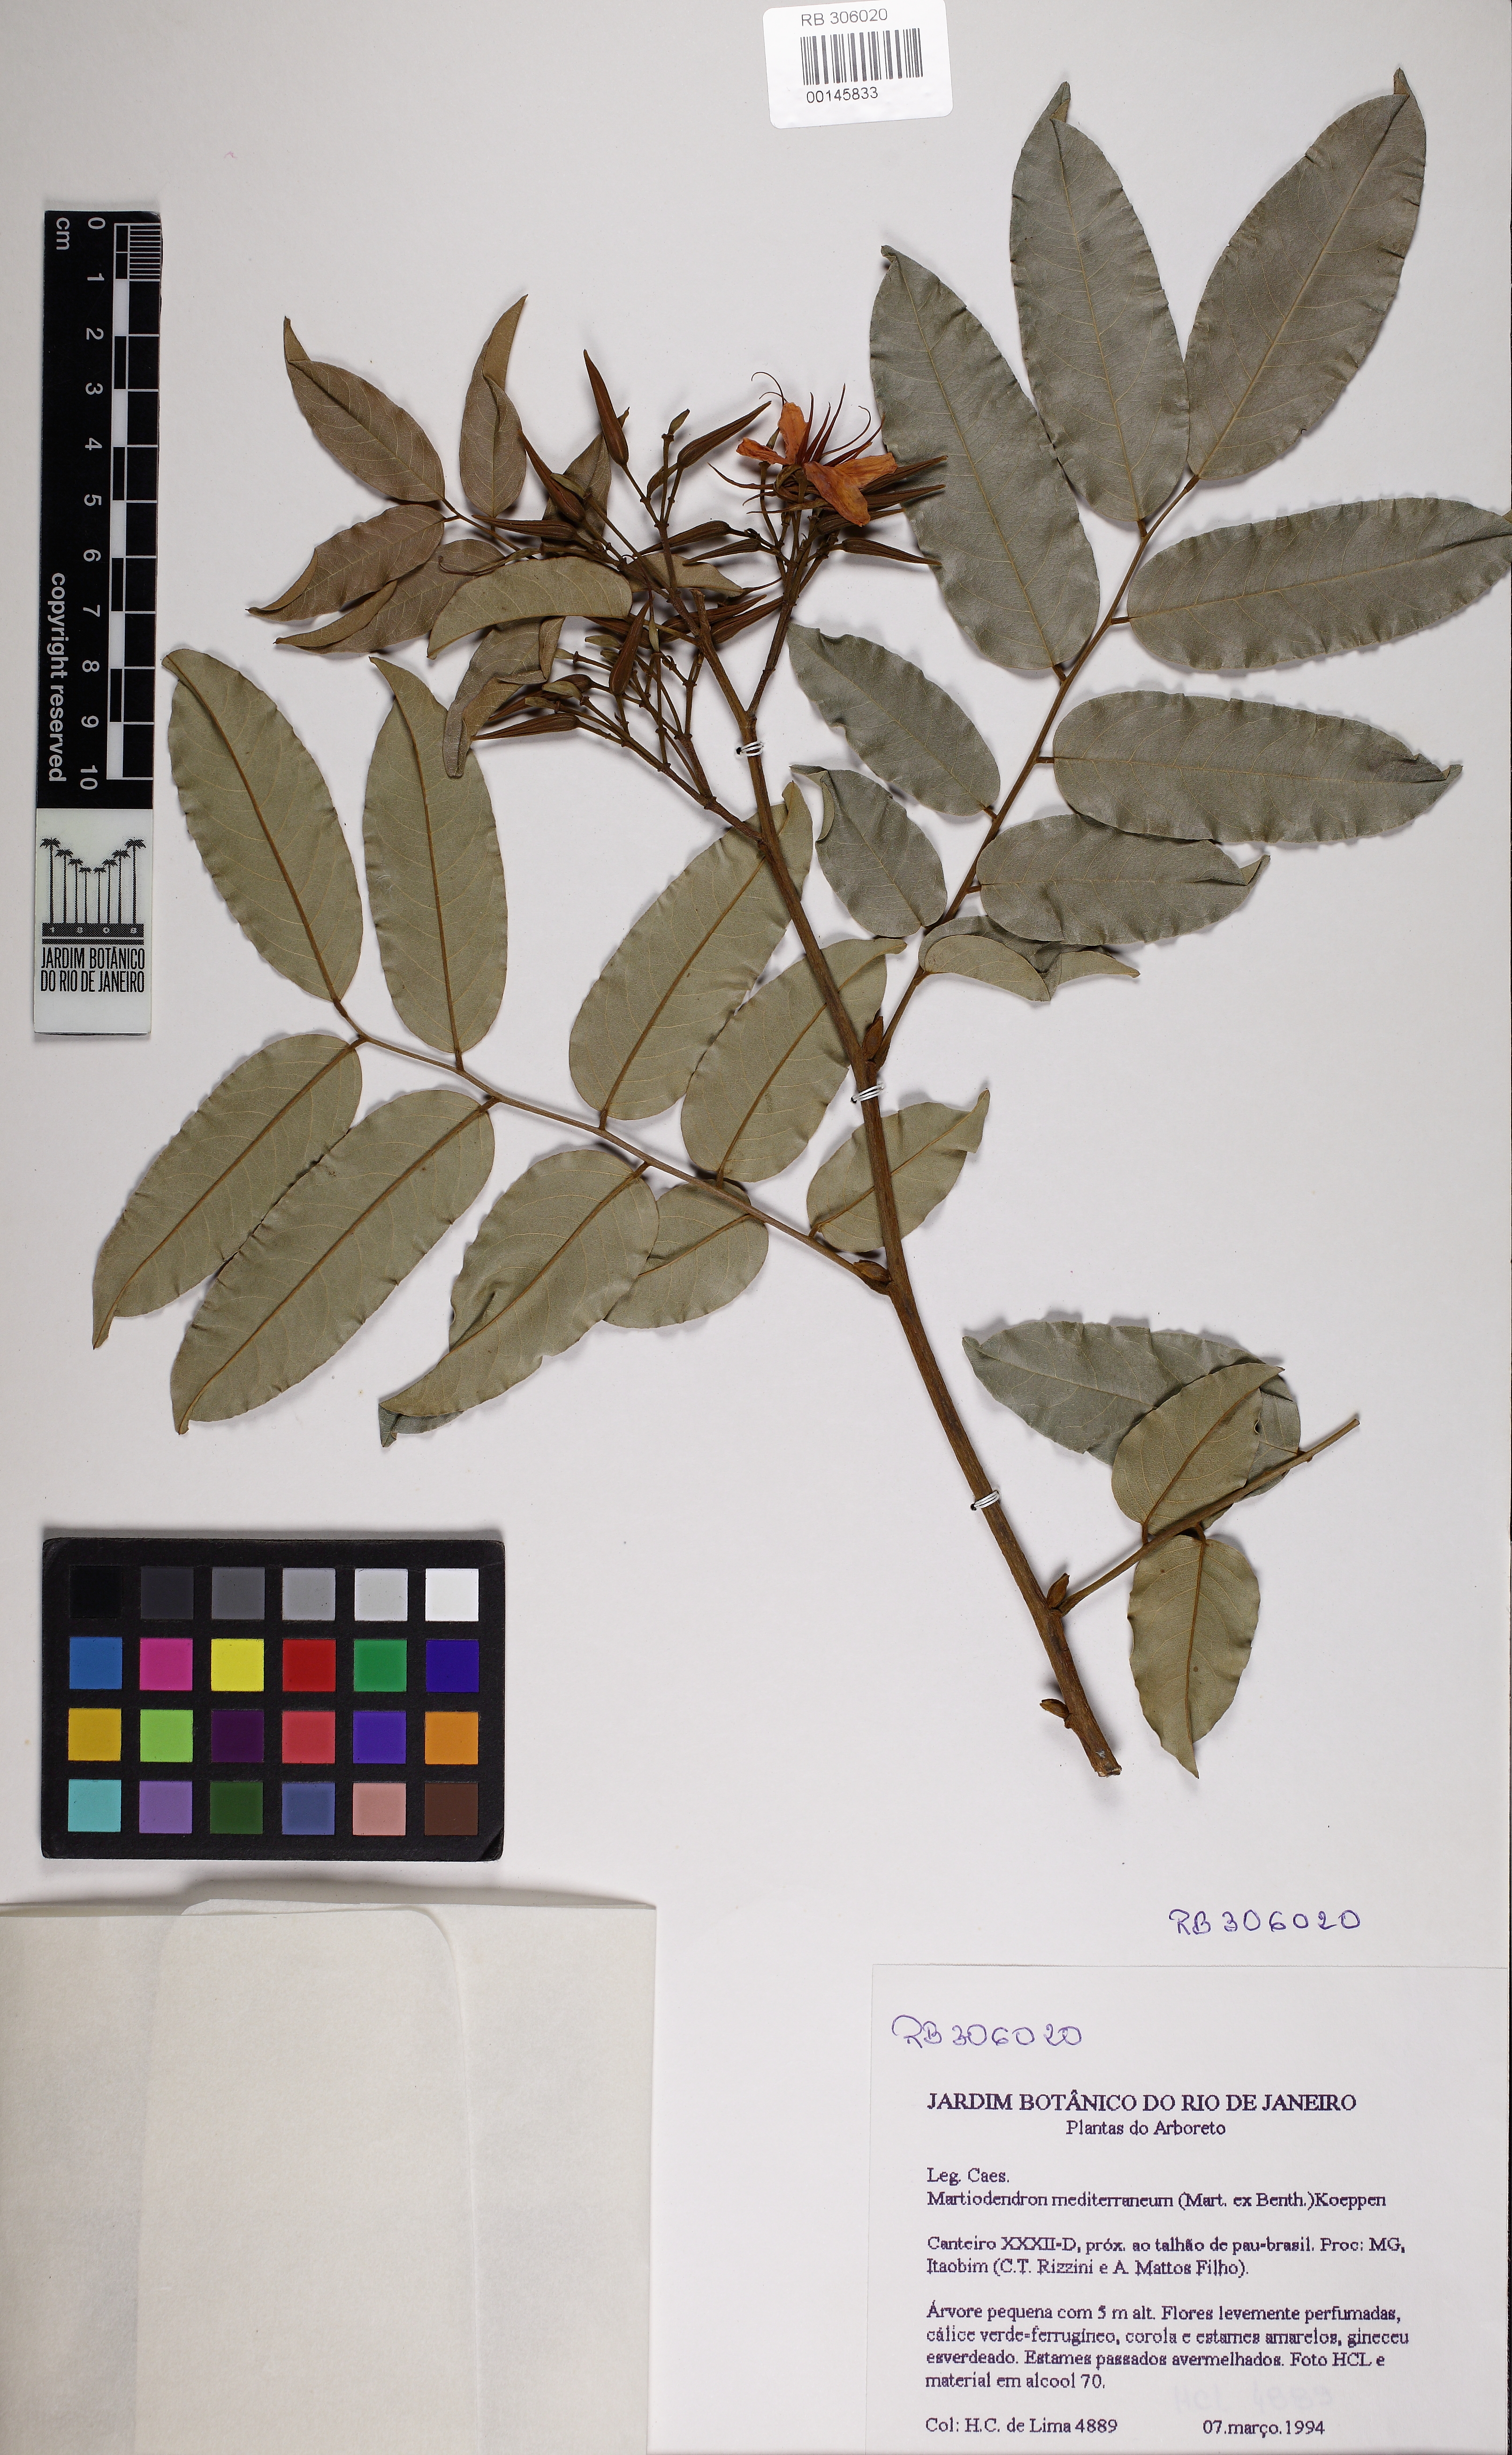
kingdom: Plantae
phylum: Tracheophyta
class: Magnoliopsida
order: Fabales
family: Fabaceae
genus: Martiodendron
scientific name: Martiodendron fluminense
